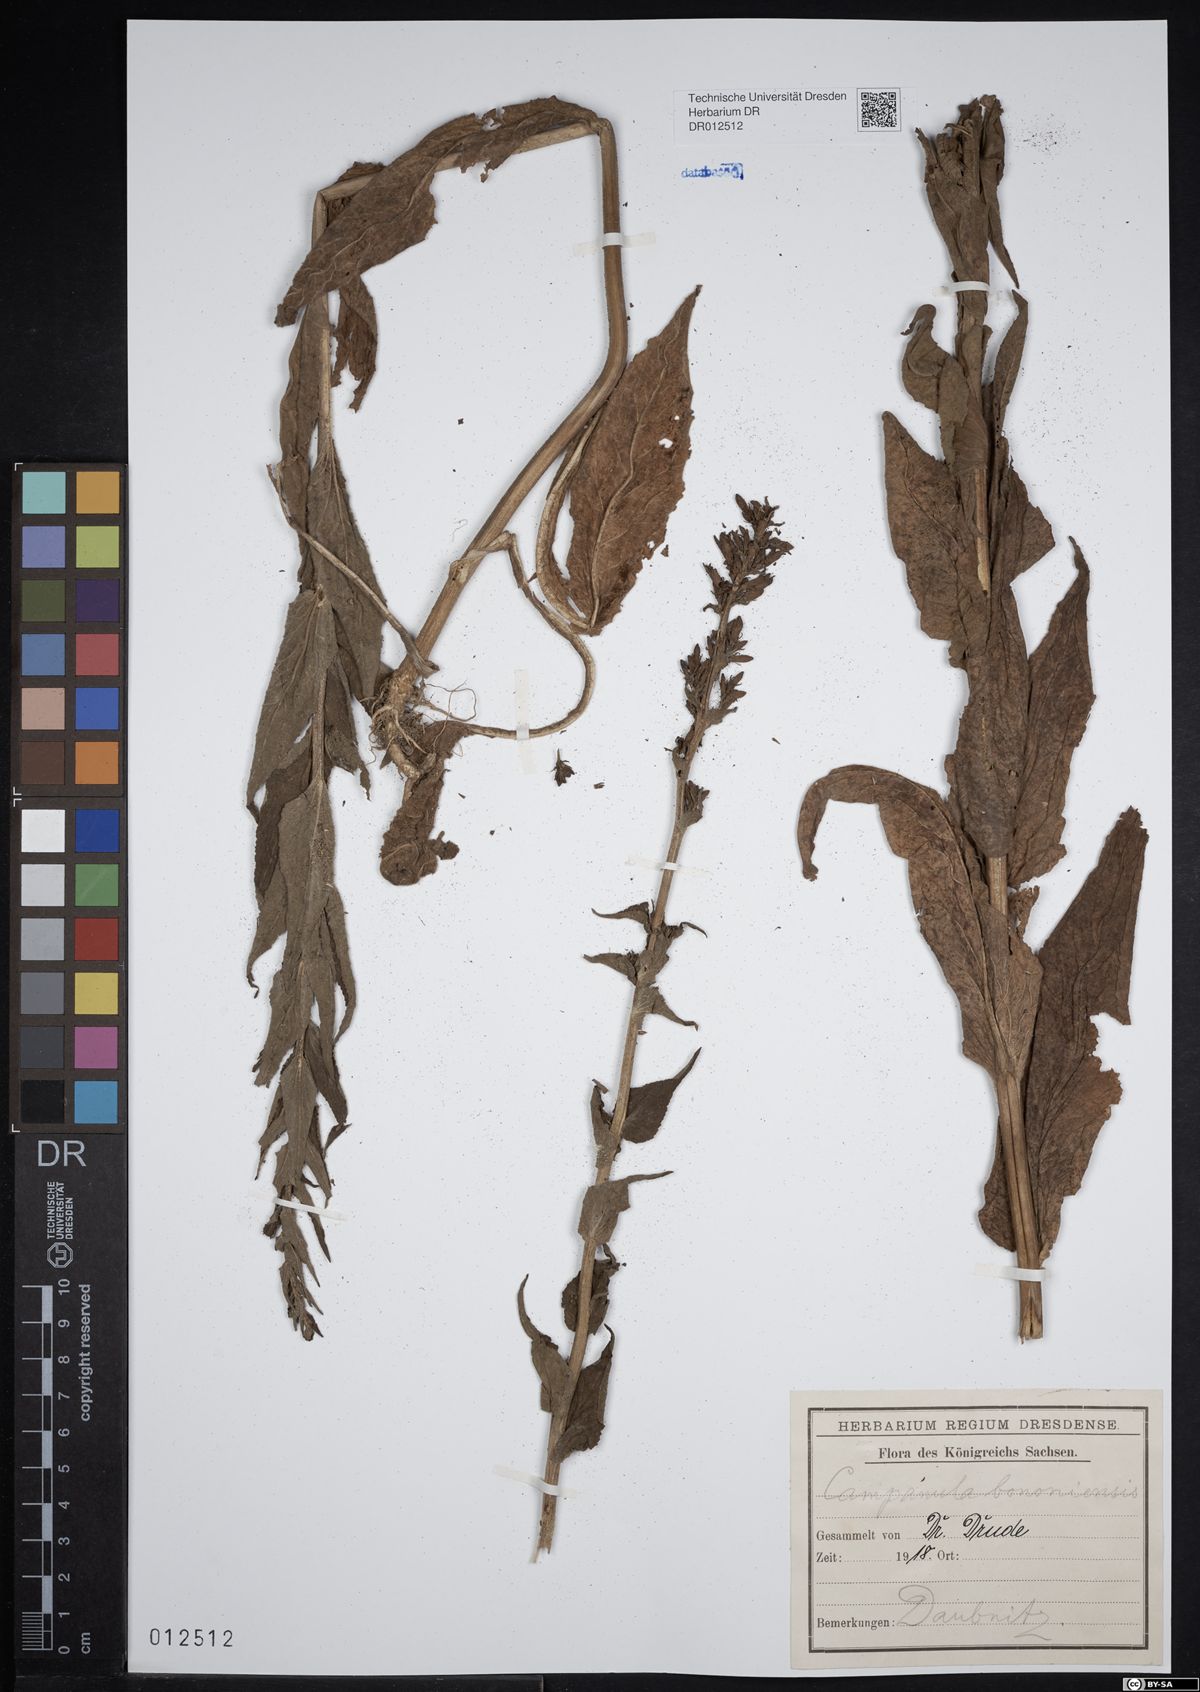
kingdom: Plantae
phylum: Tracheophyta
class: Magnoliopsida
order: Asterales
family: Campanulaceae
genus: Campanula
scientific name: Campanula bononiensis
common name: Pale bellflower
